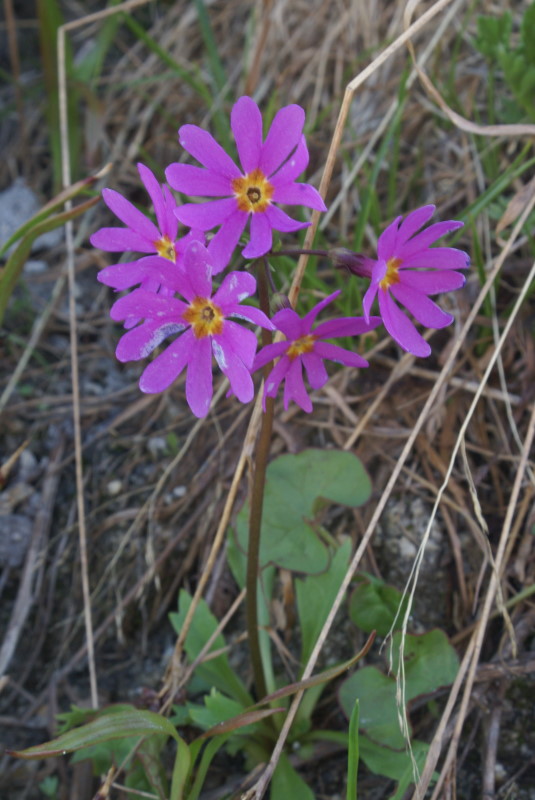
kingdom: Plantae
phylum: Tracheophyta
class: Magnoliopsida
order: Ericales
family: Primulaceae
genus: Primula
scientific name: Primula nutans
